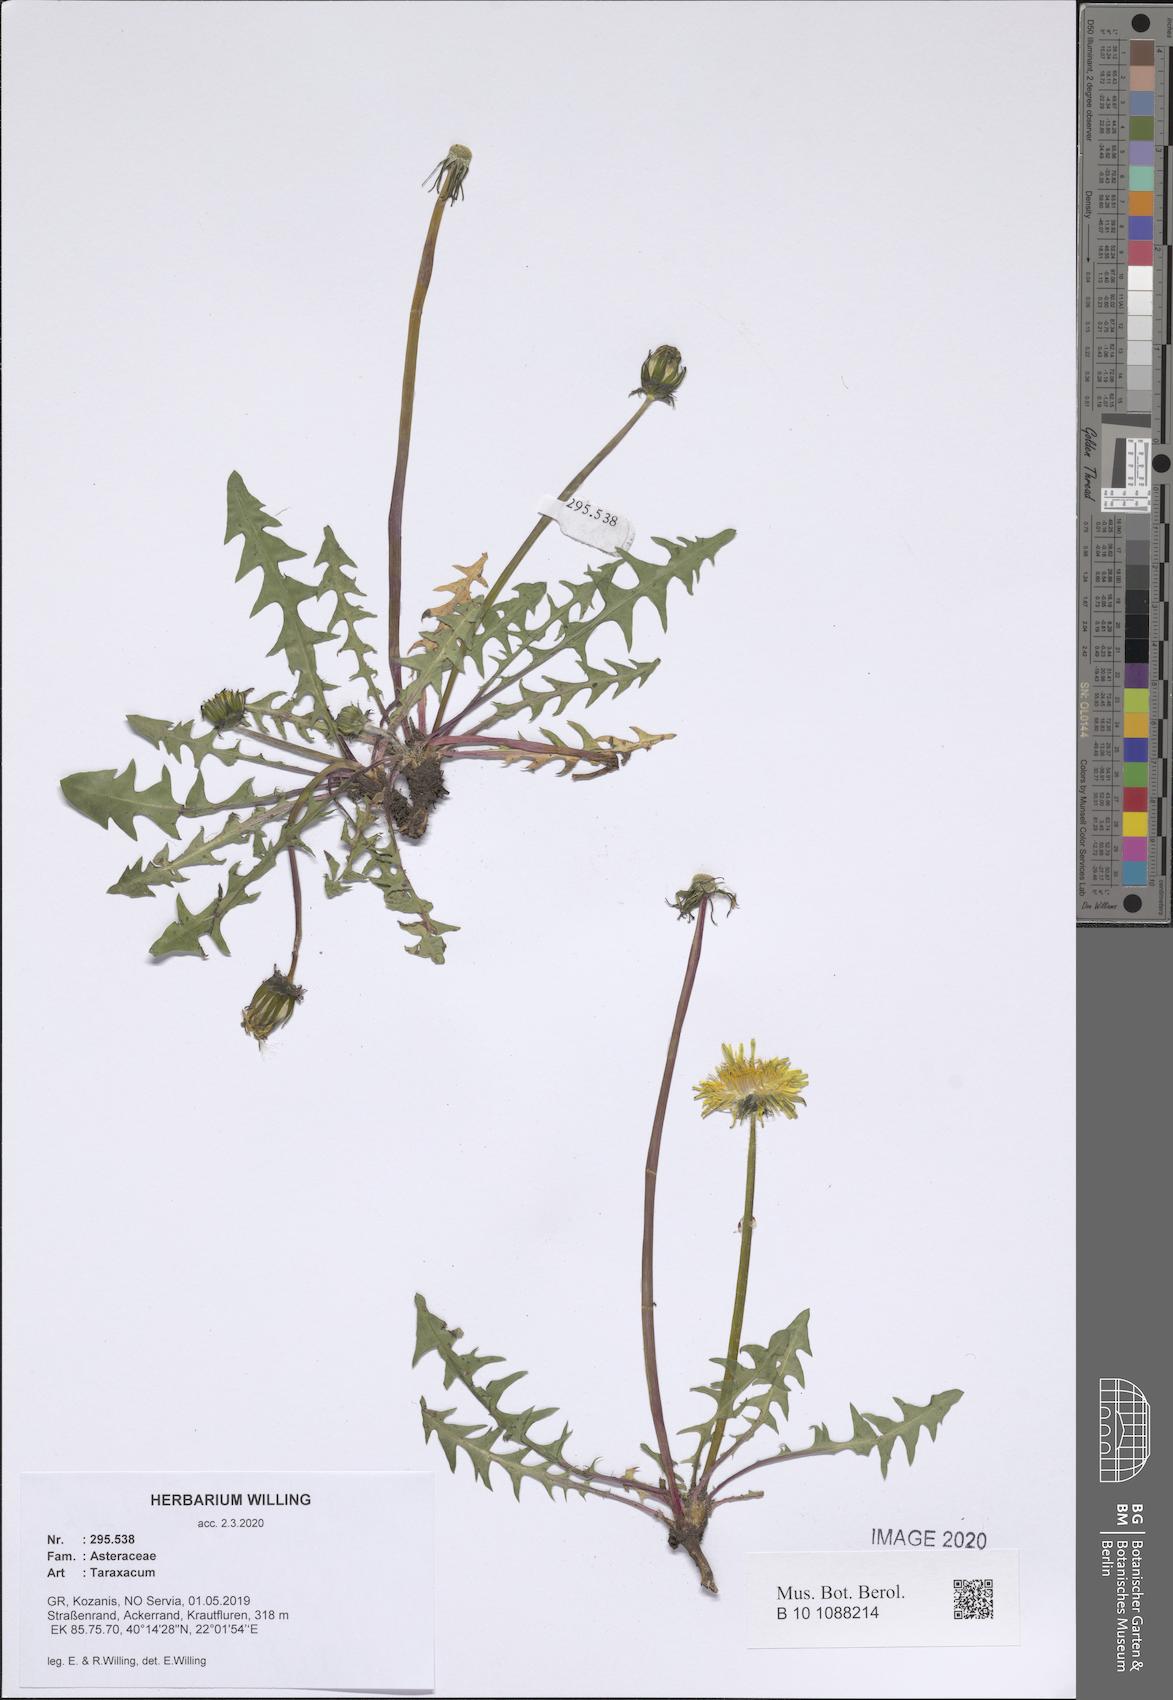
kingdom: Plantae
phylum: Tracheophyta
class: Magnoliopsida
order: Asterales
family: Asteraceae
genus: Taraxacum
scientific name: Taraxacum
